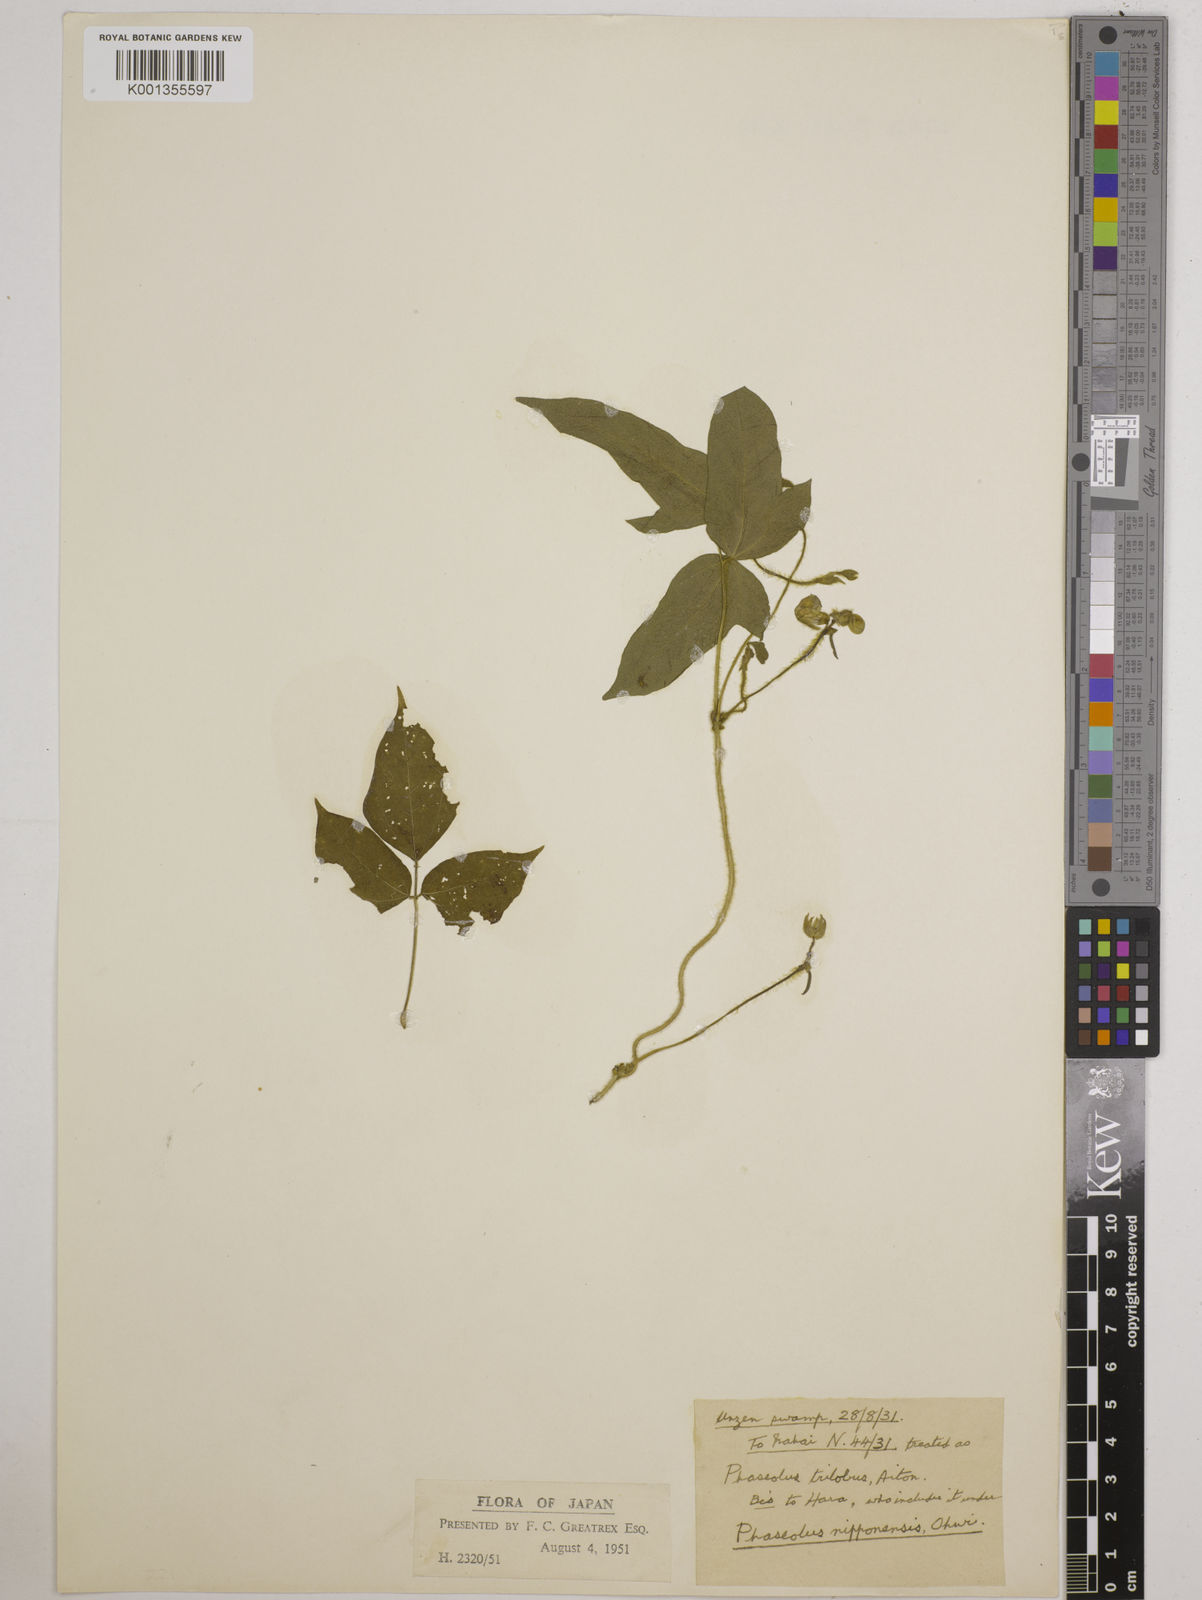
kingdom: Plantae
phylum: Tracheophyta
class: Magnoliopsida
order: Fabales
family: Fabaceae
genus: Vigna
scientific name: Vigna
